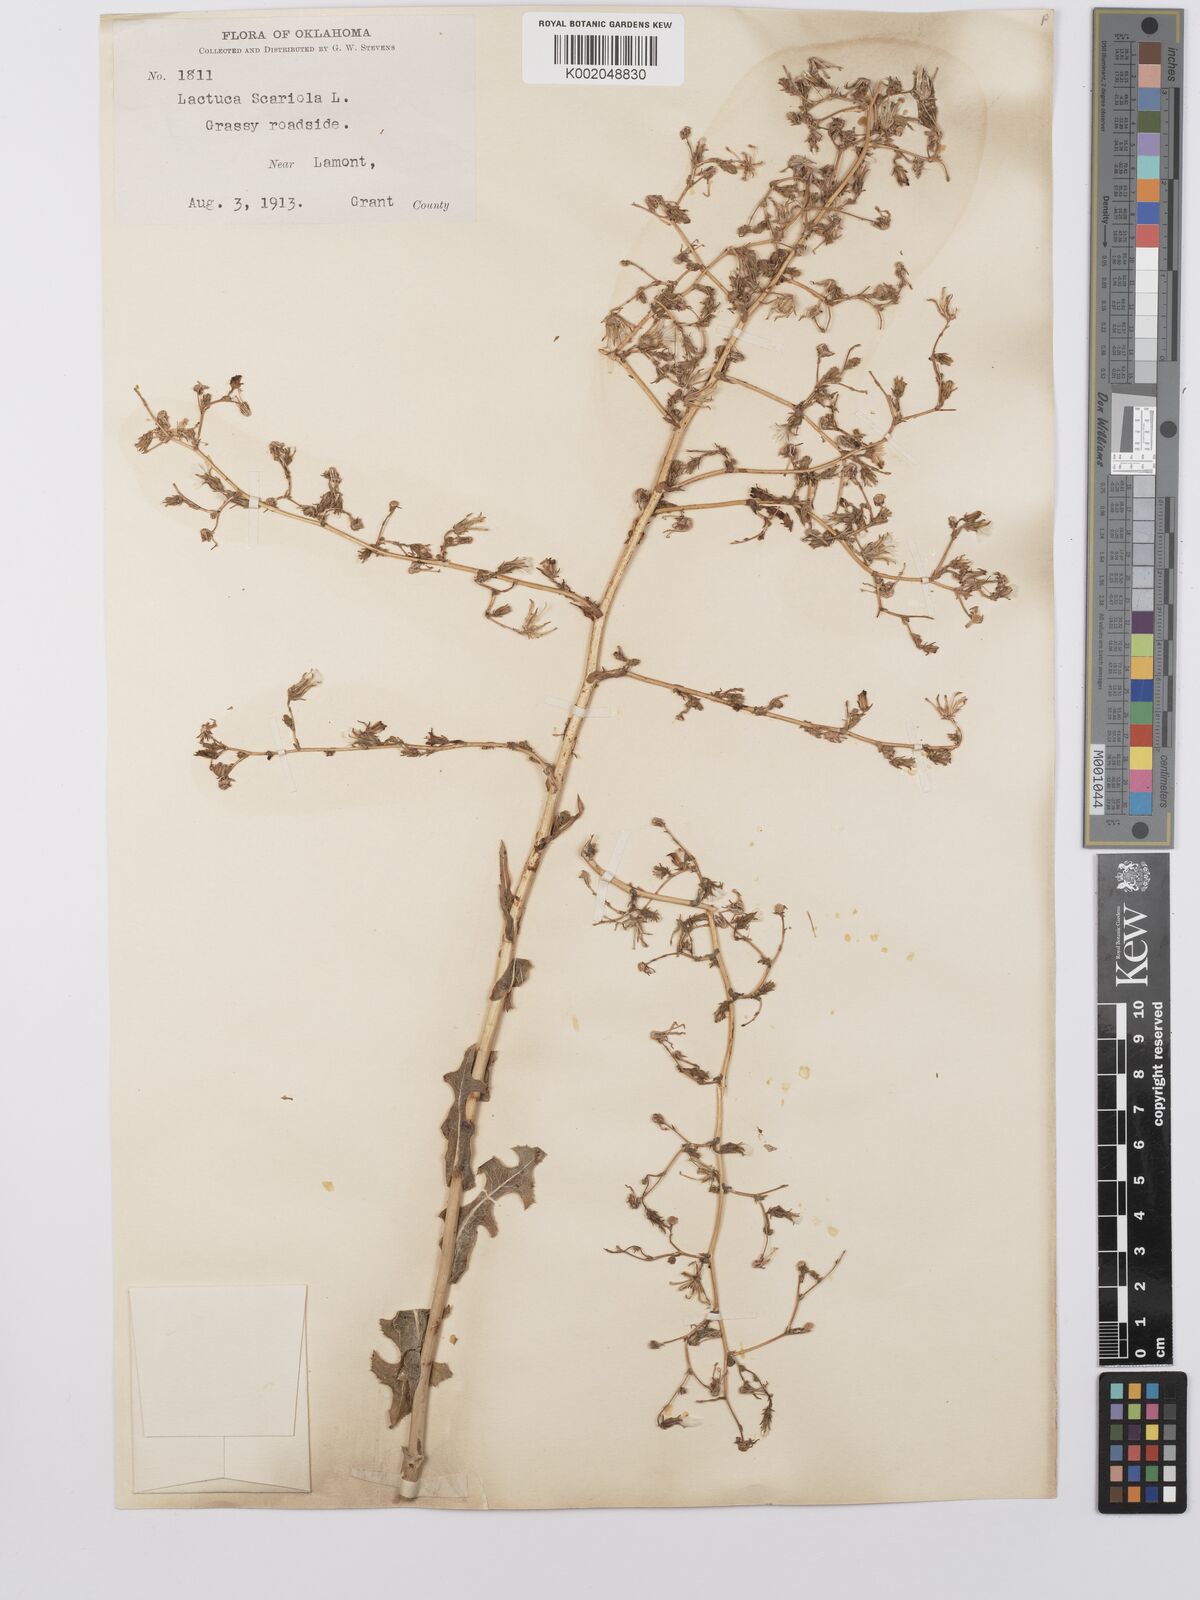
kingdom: Plantae
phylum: Tracheophyta
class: Magnoliopsida
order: Asterales
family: Asteraceae
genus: Lactuca
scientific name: Lactuca serriola
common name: Prickly lettuce
